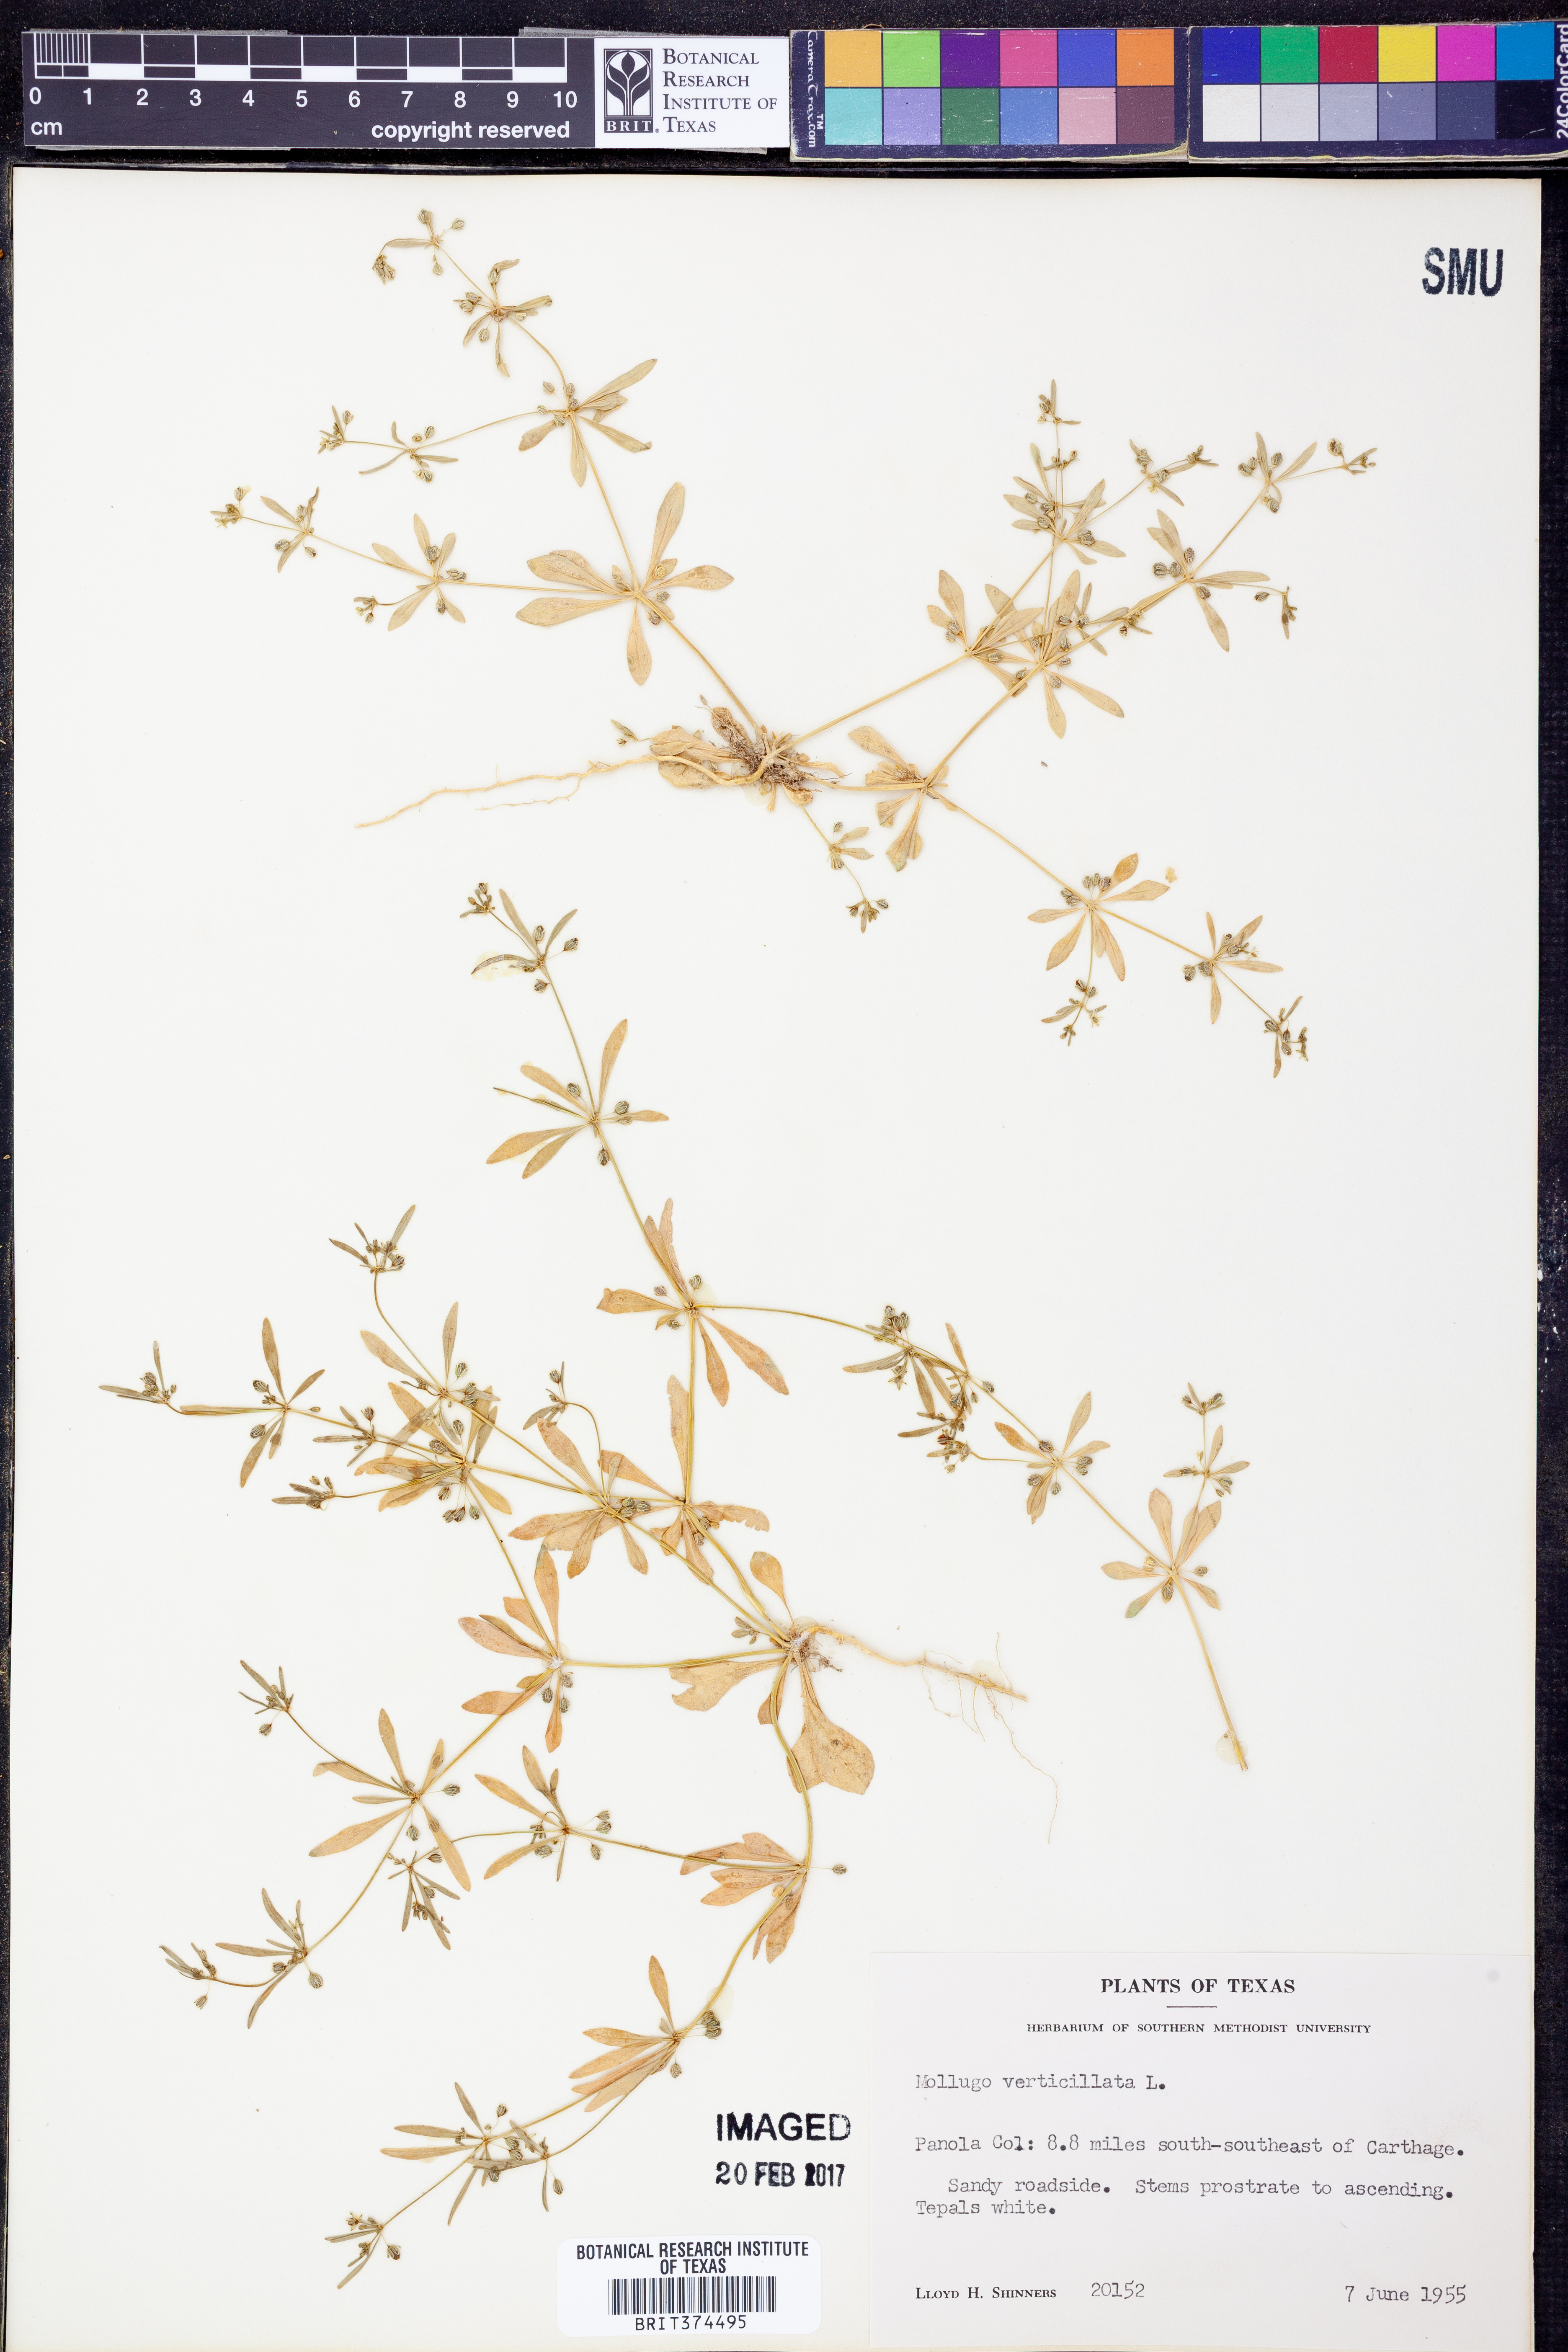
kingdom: Plantae
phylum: Tracheophyta
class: Magnoliopsida
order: Caryophyllales
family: Molluginaceae
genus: Mollugo
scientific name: Mollugo verticillata
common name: Green carpetweed
